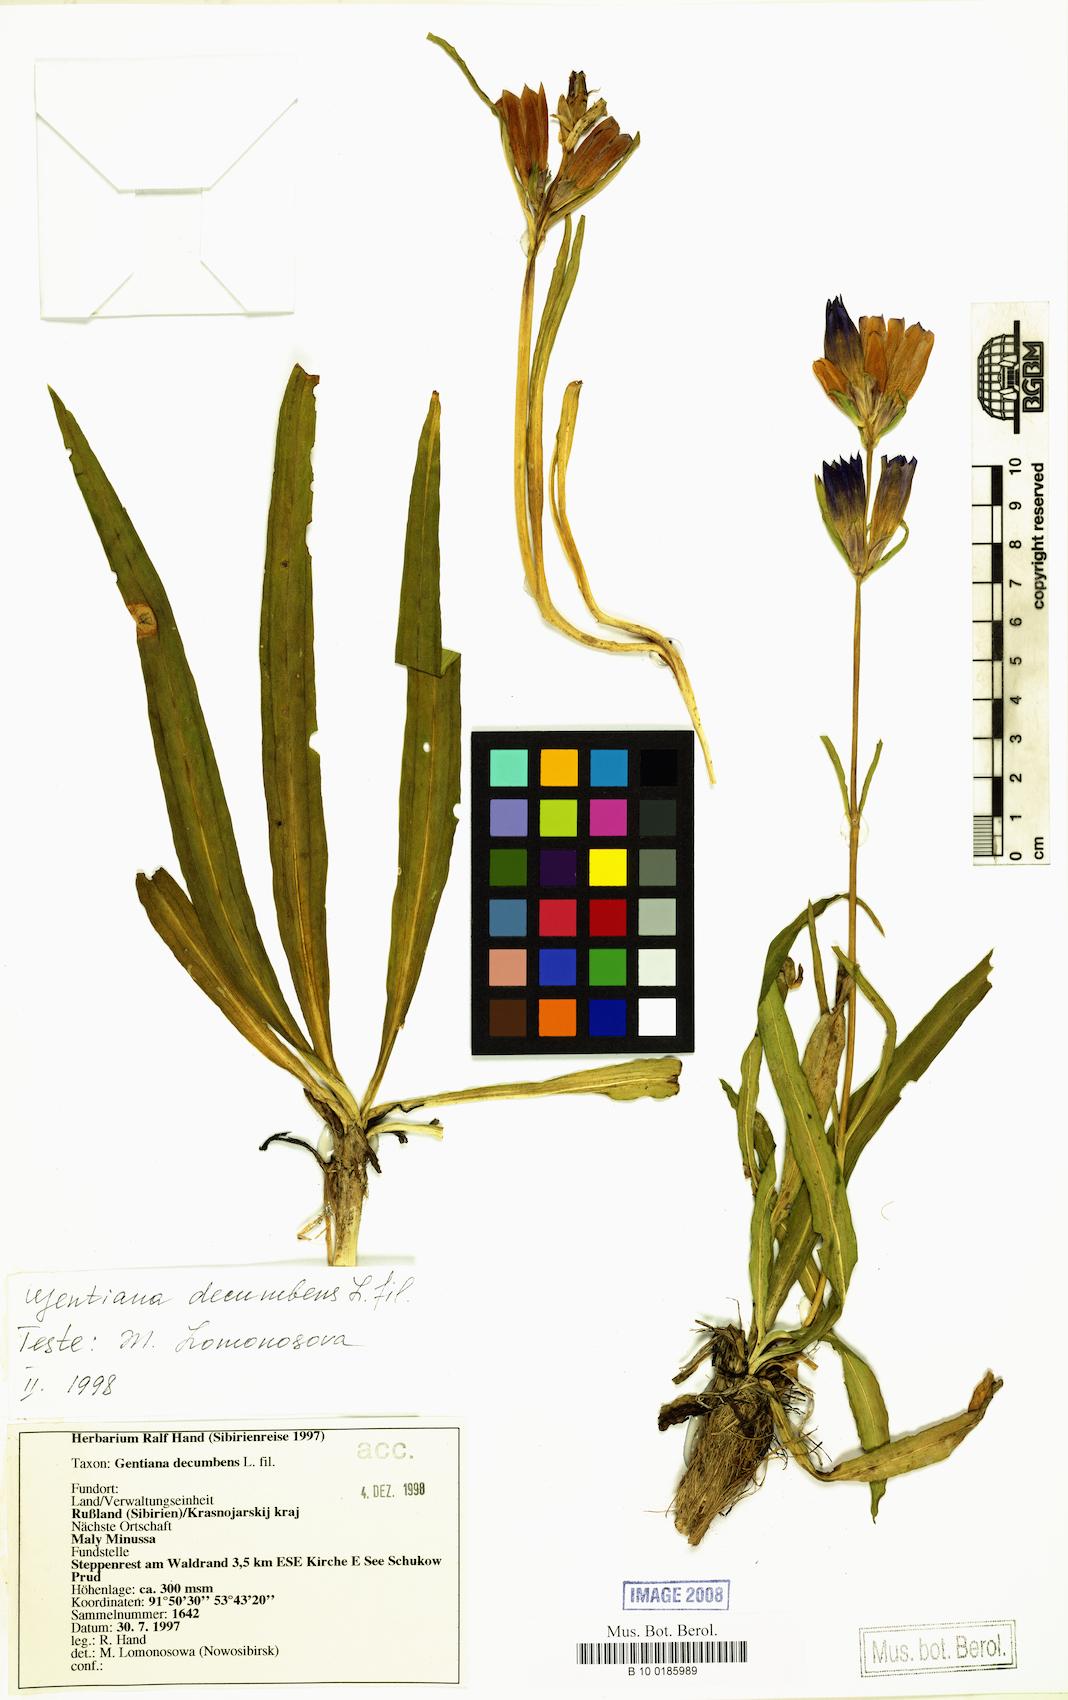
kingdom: Plantae
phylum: Tracheophyta
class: Magnoliopsida
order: Gentianales
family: Gentianaceae
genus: Gentiana
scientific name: Gentiana decumbens
